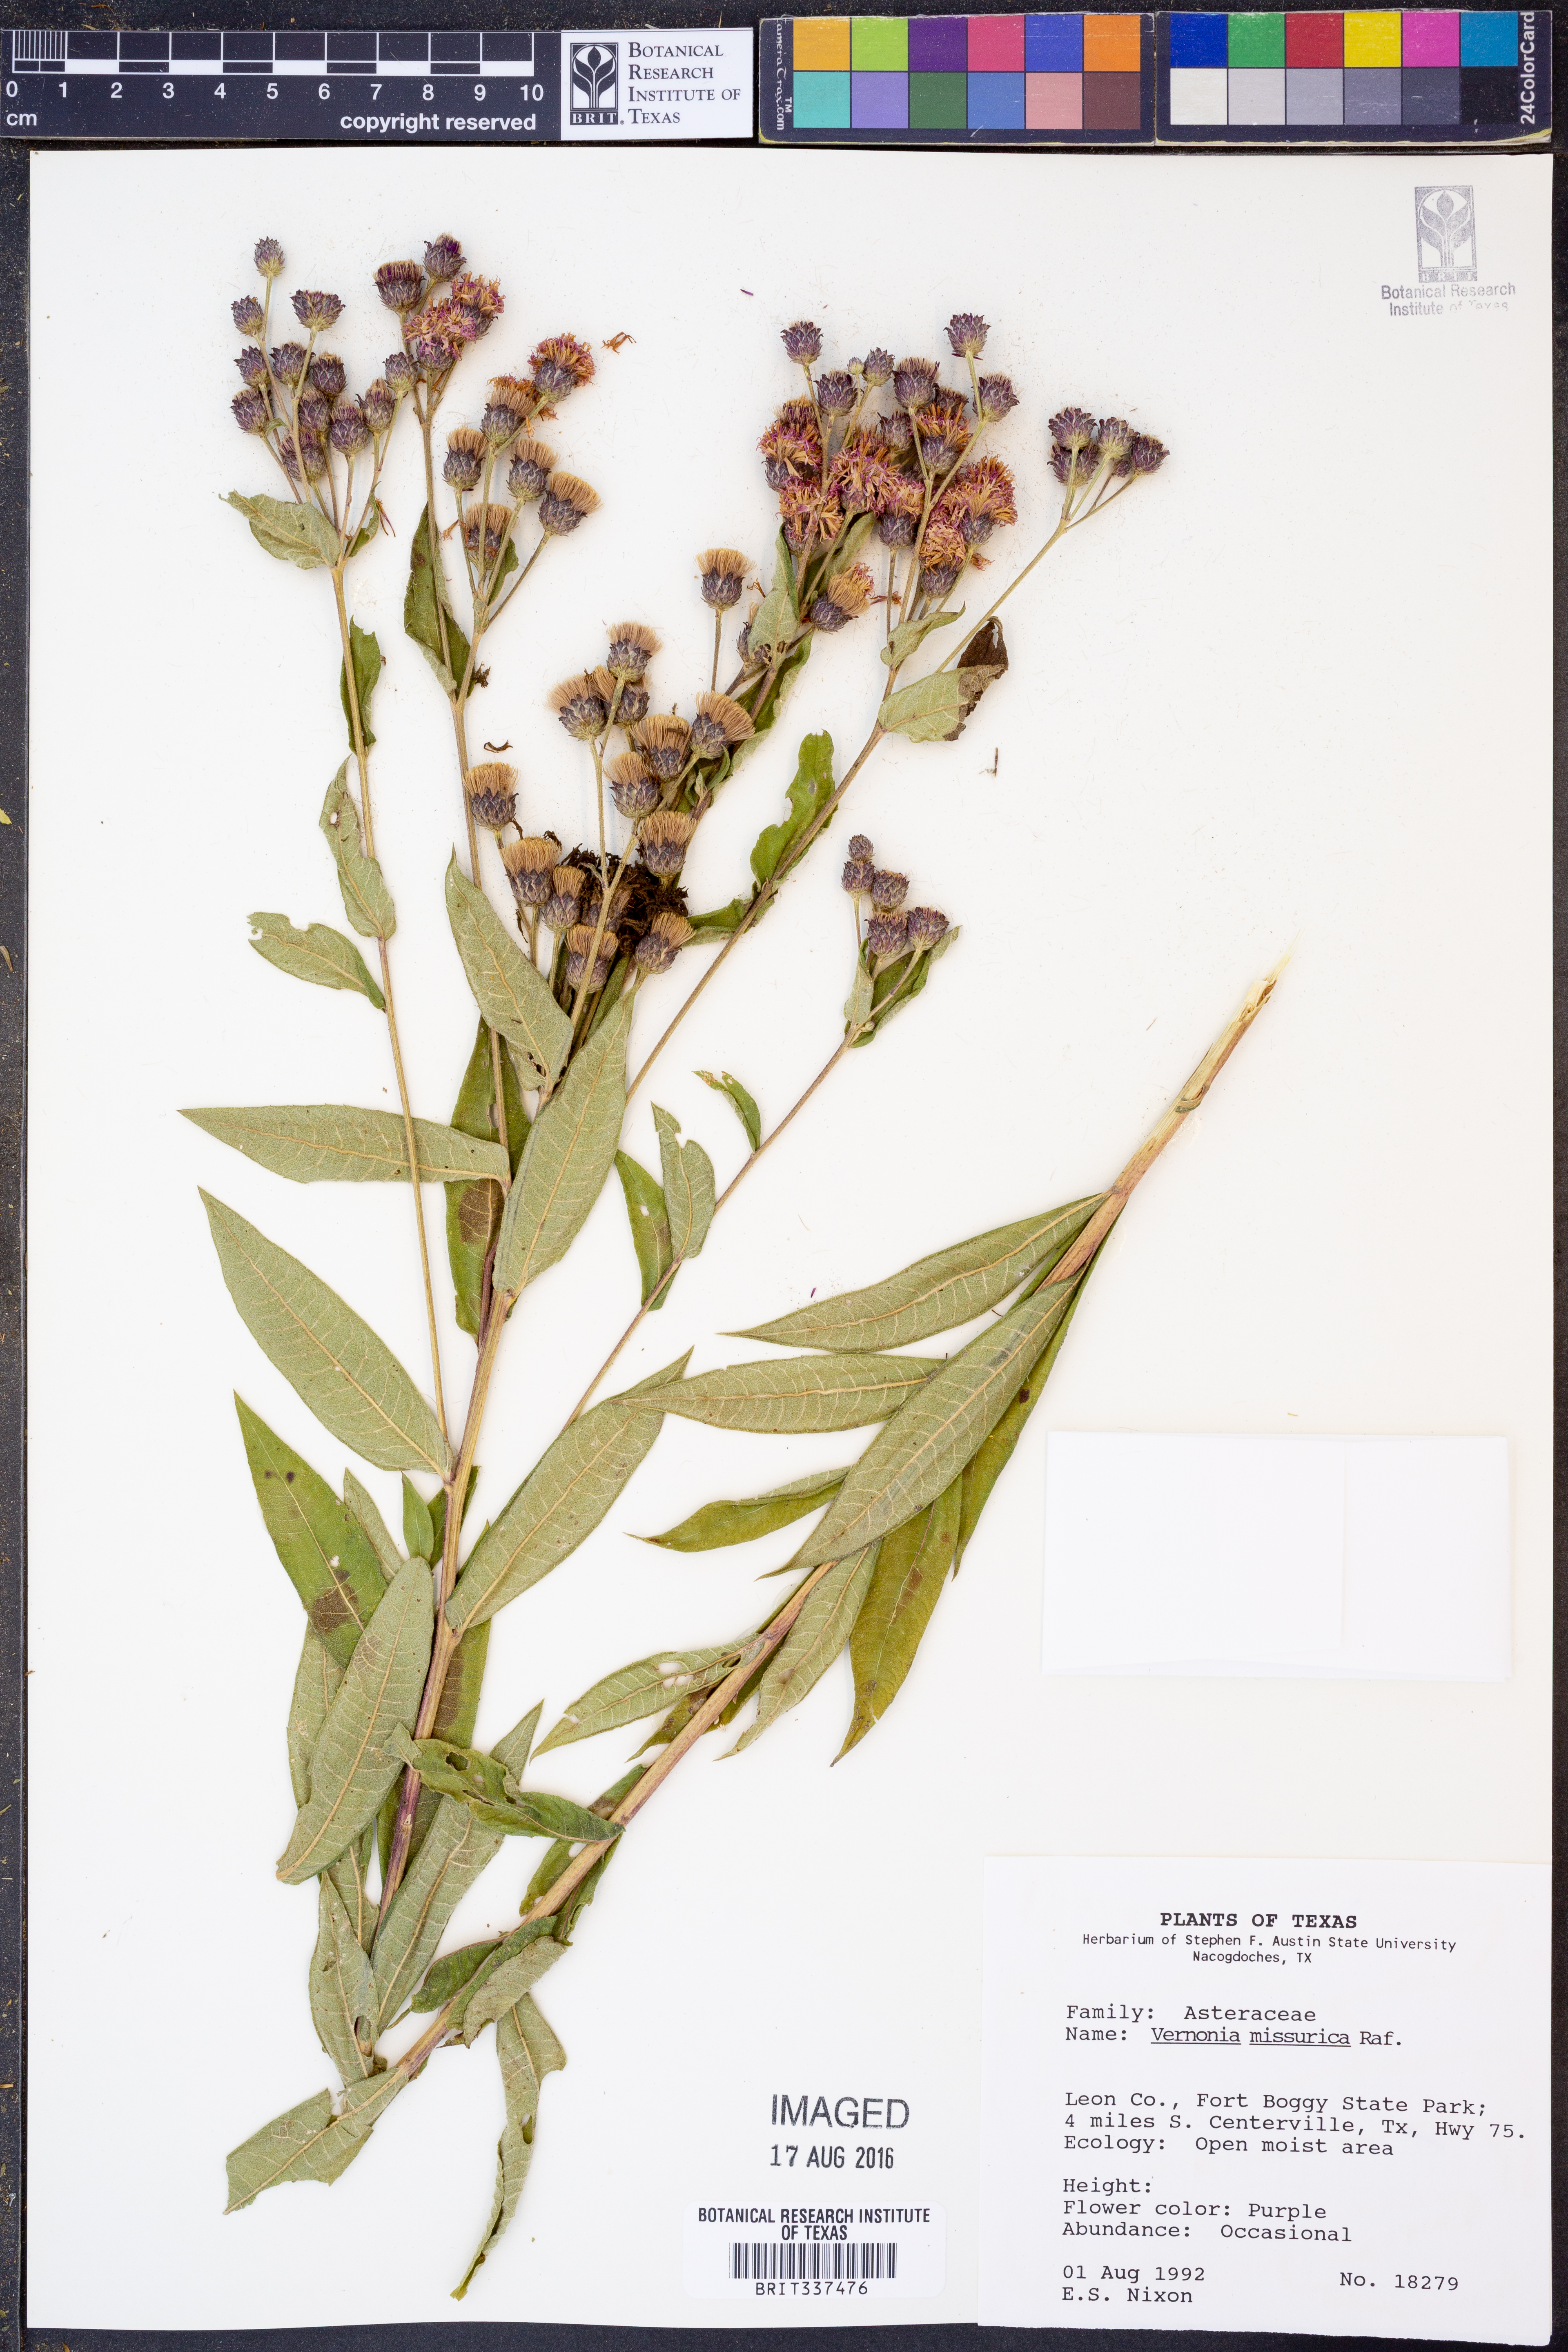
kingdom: Plantae
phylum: Tracheophyta
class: Magnoliopsida
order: Asterales
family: Asteraceae
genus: Vernonia
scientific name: Vernonia missurica
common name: Missouri ironweed
